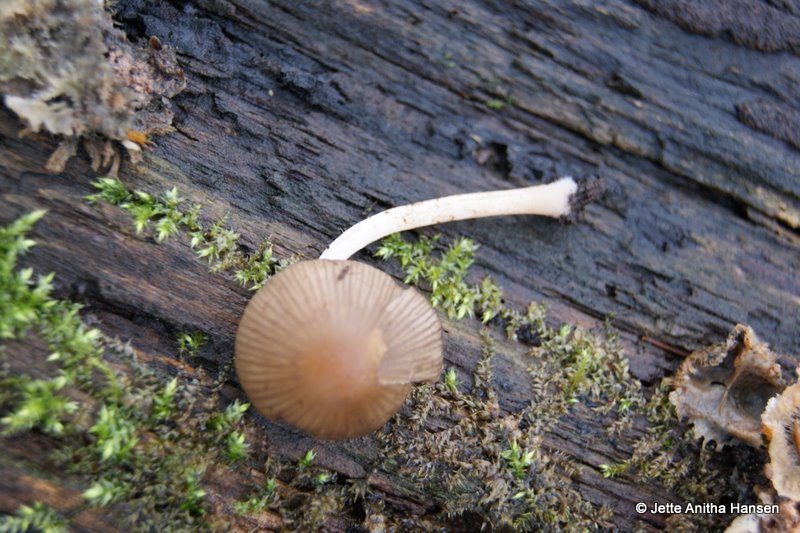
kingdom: Fungi
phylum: Basidiomycota
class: Agaricomycetes
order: Agaricales
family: Psathyrellaceae
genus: Psathyrella
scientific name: Psathyrella obtusata
